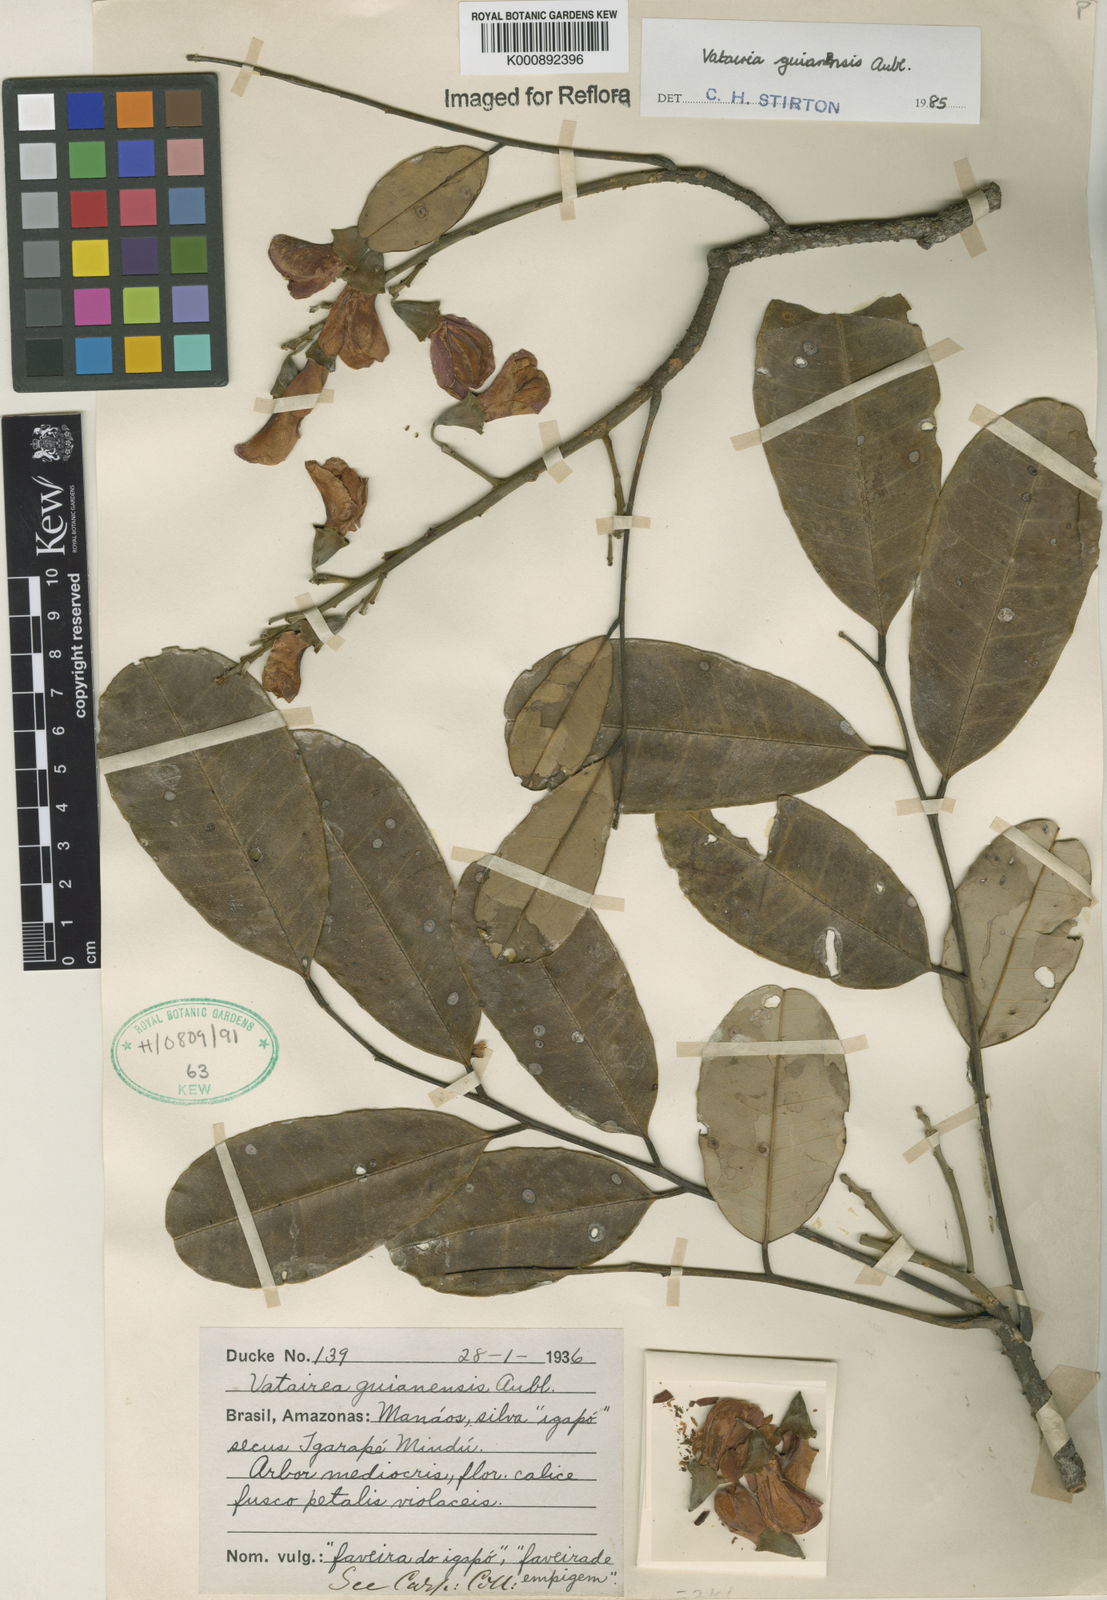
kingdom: Plantae
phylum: Tracheophyta
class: Magnoliopsida
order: Fabales
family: Fabaceae
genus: Vatairea
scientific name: Vatairea guianensis
